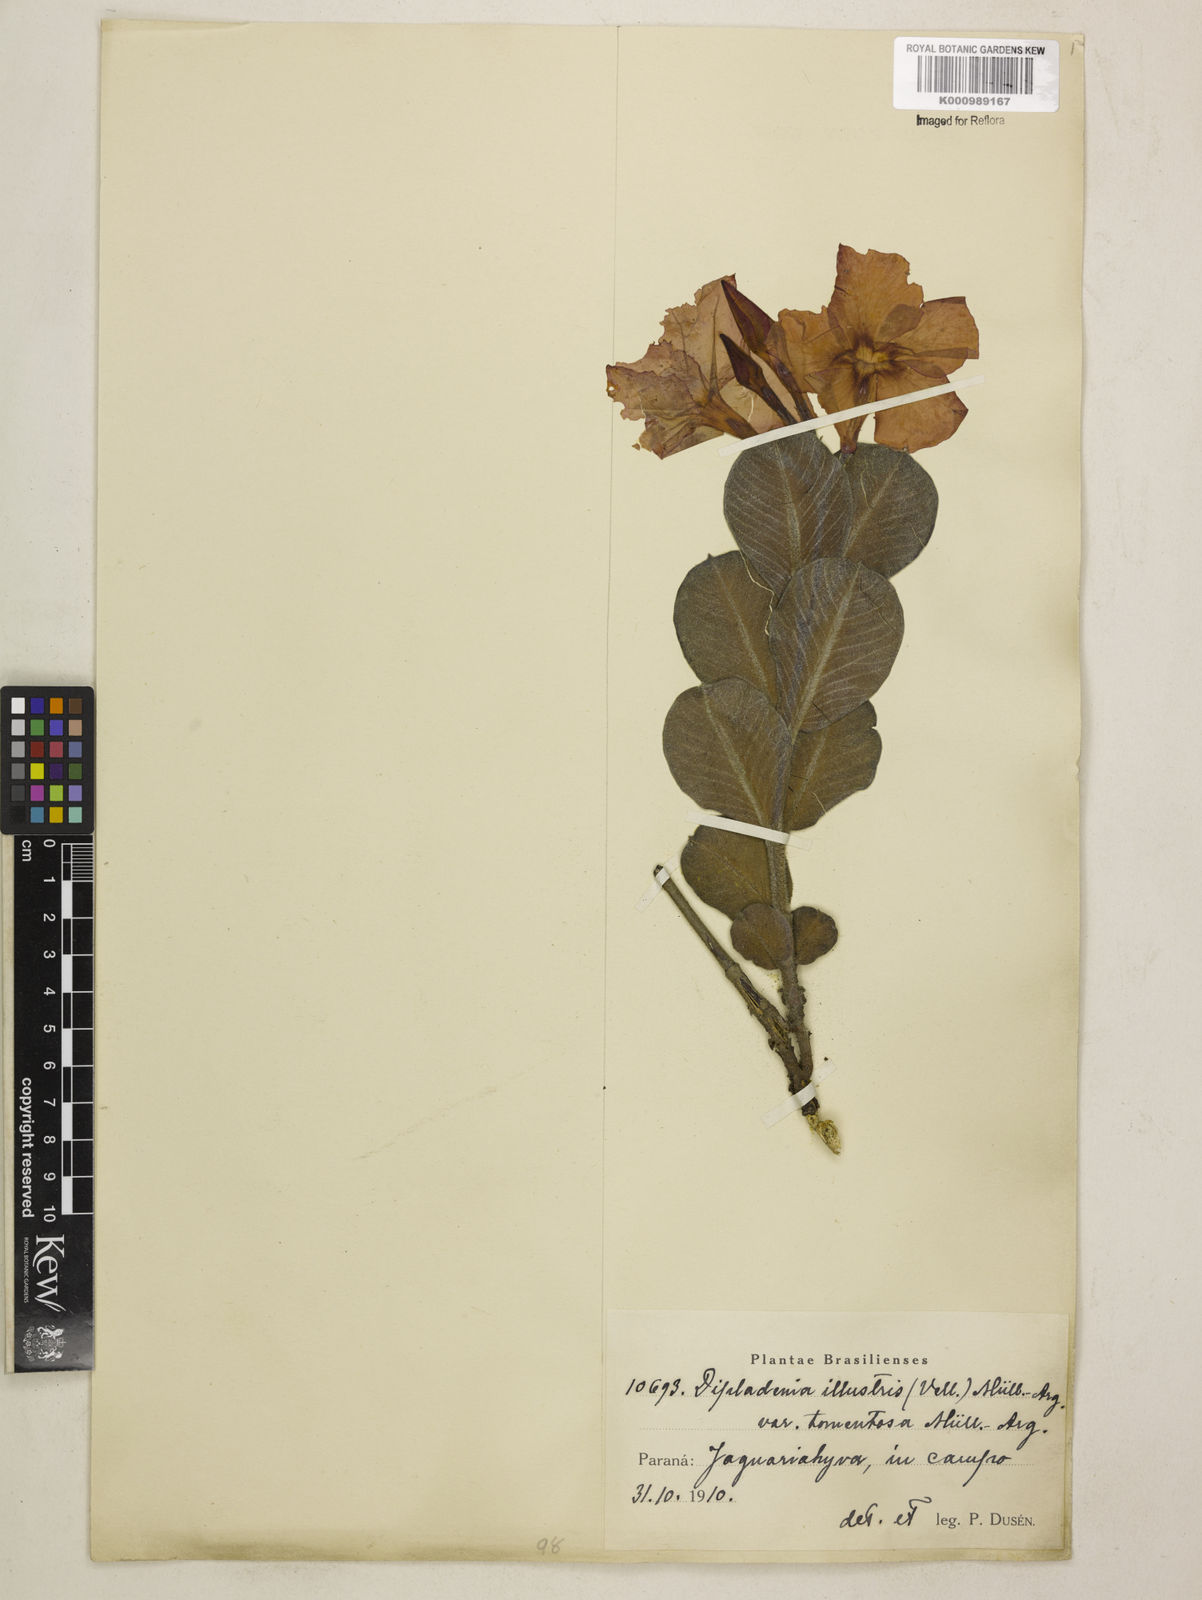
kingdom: Plantae
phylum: Tracheophyta
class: Magnoliopsida
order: Gentianales
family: Apocynaceae
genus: Mandevilla
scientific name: Mandevilla illustris
